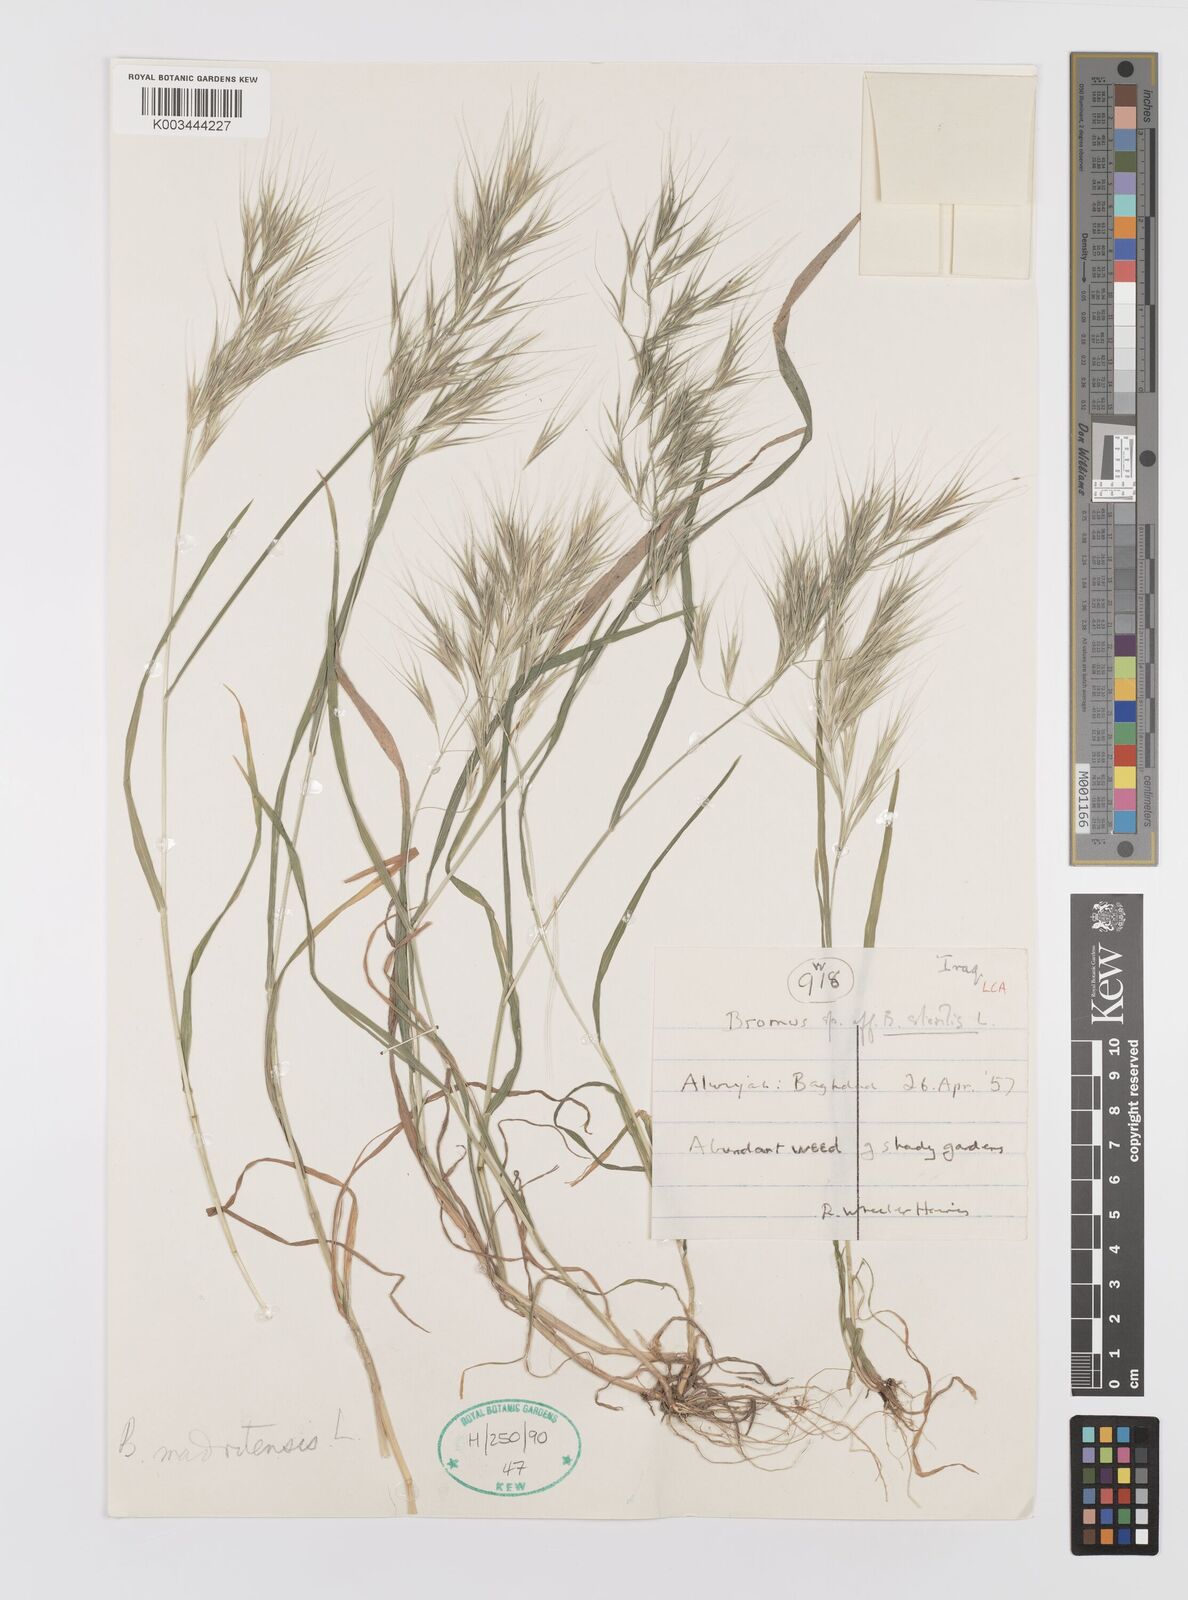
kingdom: Plantae
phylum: Tracheophyta
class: Liliopsida
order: Poales
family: Poaceae
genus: Bromus
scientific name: Bromus madritensis
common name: Compact brome
